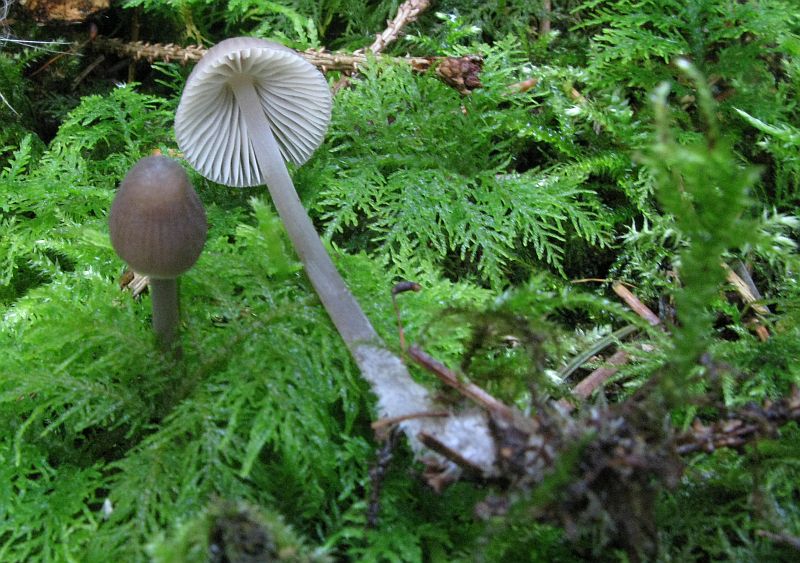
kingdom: Fungi
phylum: Basidiomycota
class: Agaricomycetes
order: Agaricales
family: Mycenaceae
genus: Mycena
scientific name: Mycena abramsii
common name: sommer-huesvamp
